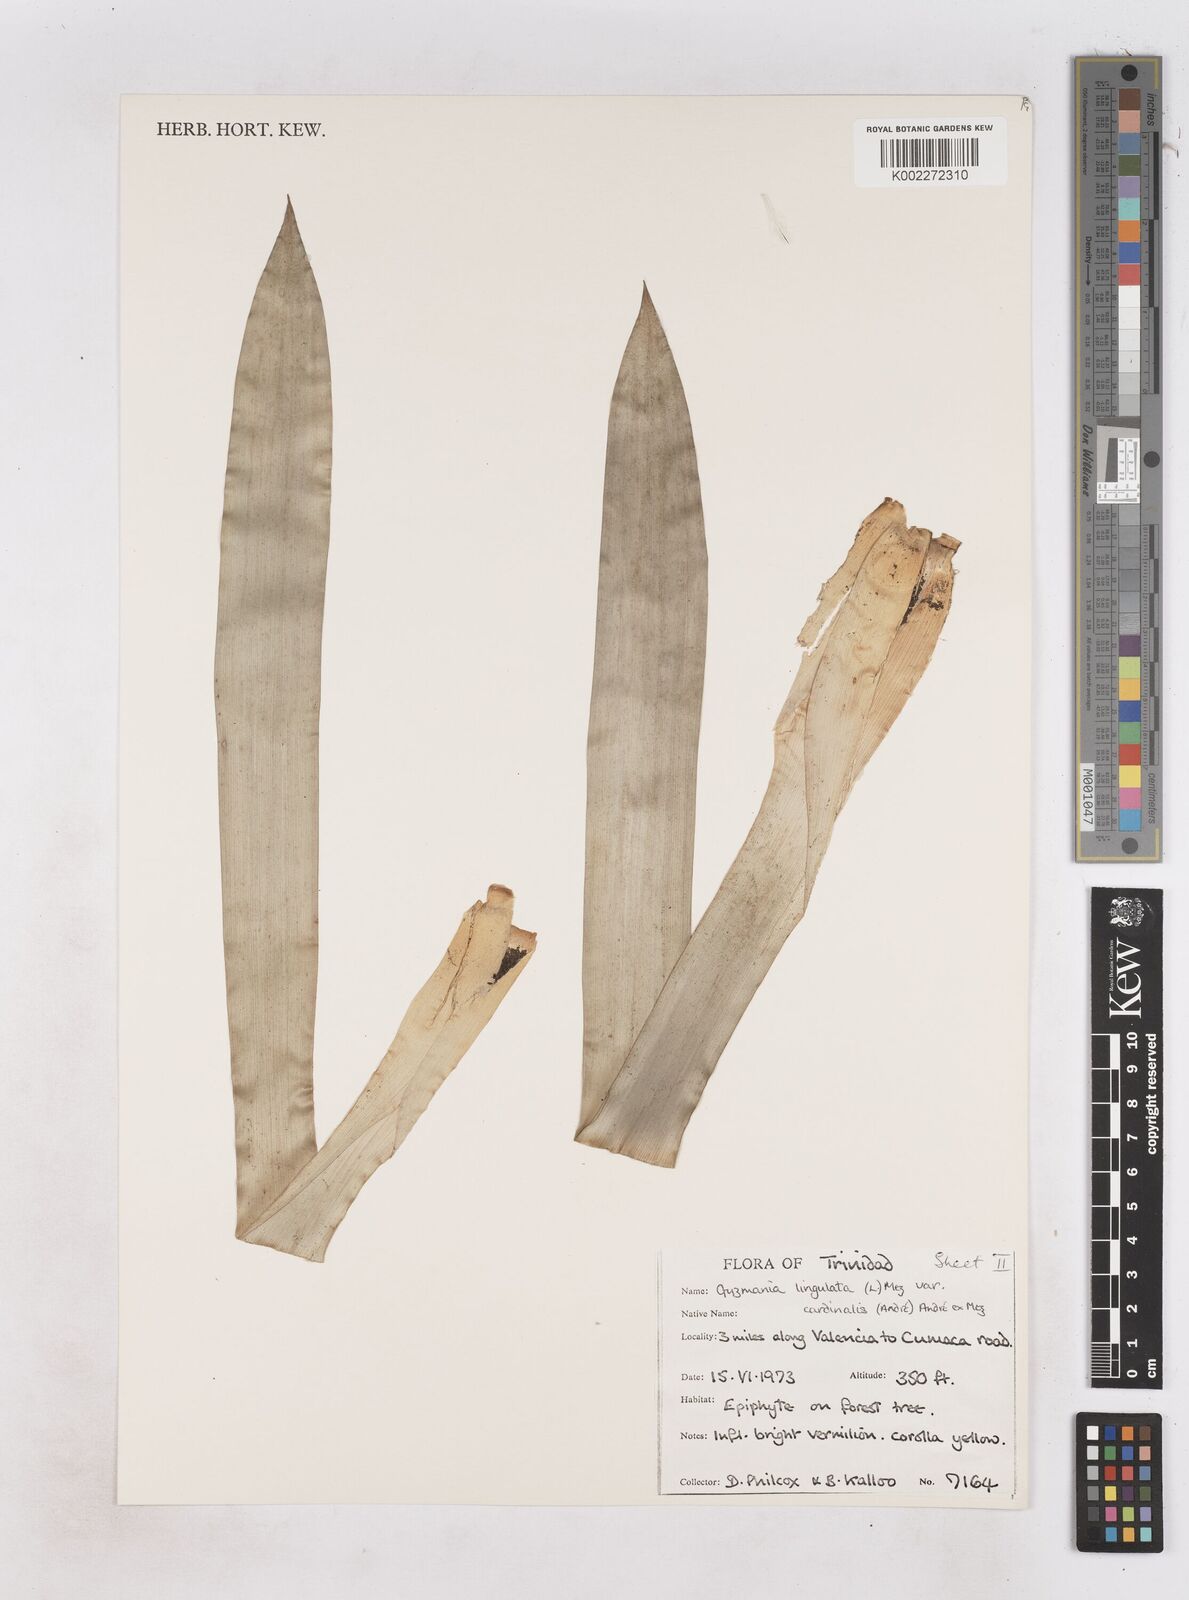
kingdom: Plantae
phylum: Tracheophyta
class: Liliopsida
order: Poales
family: Bromeliaceae
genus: Guzmania
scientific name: Guzmania lingulata
